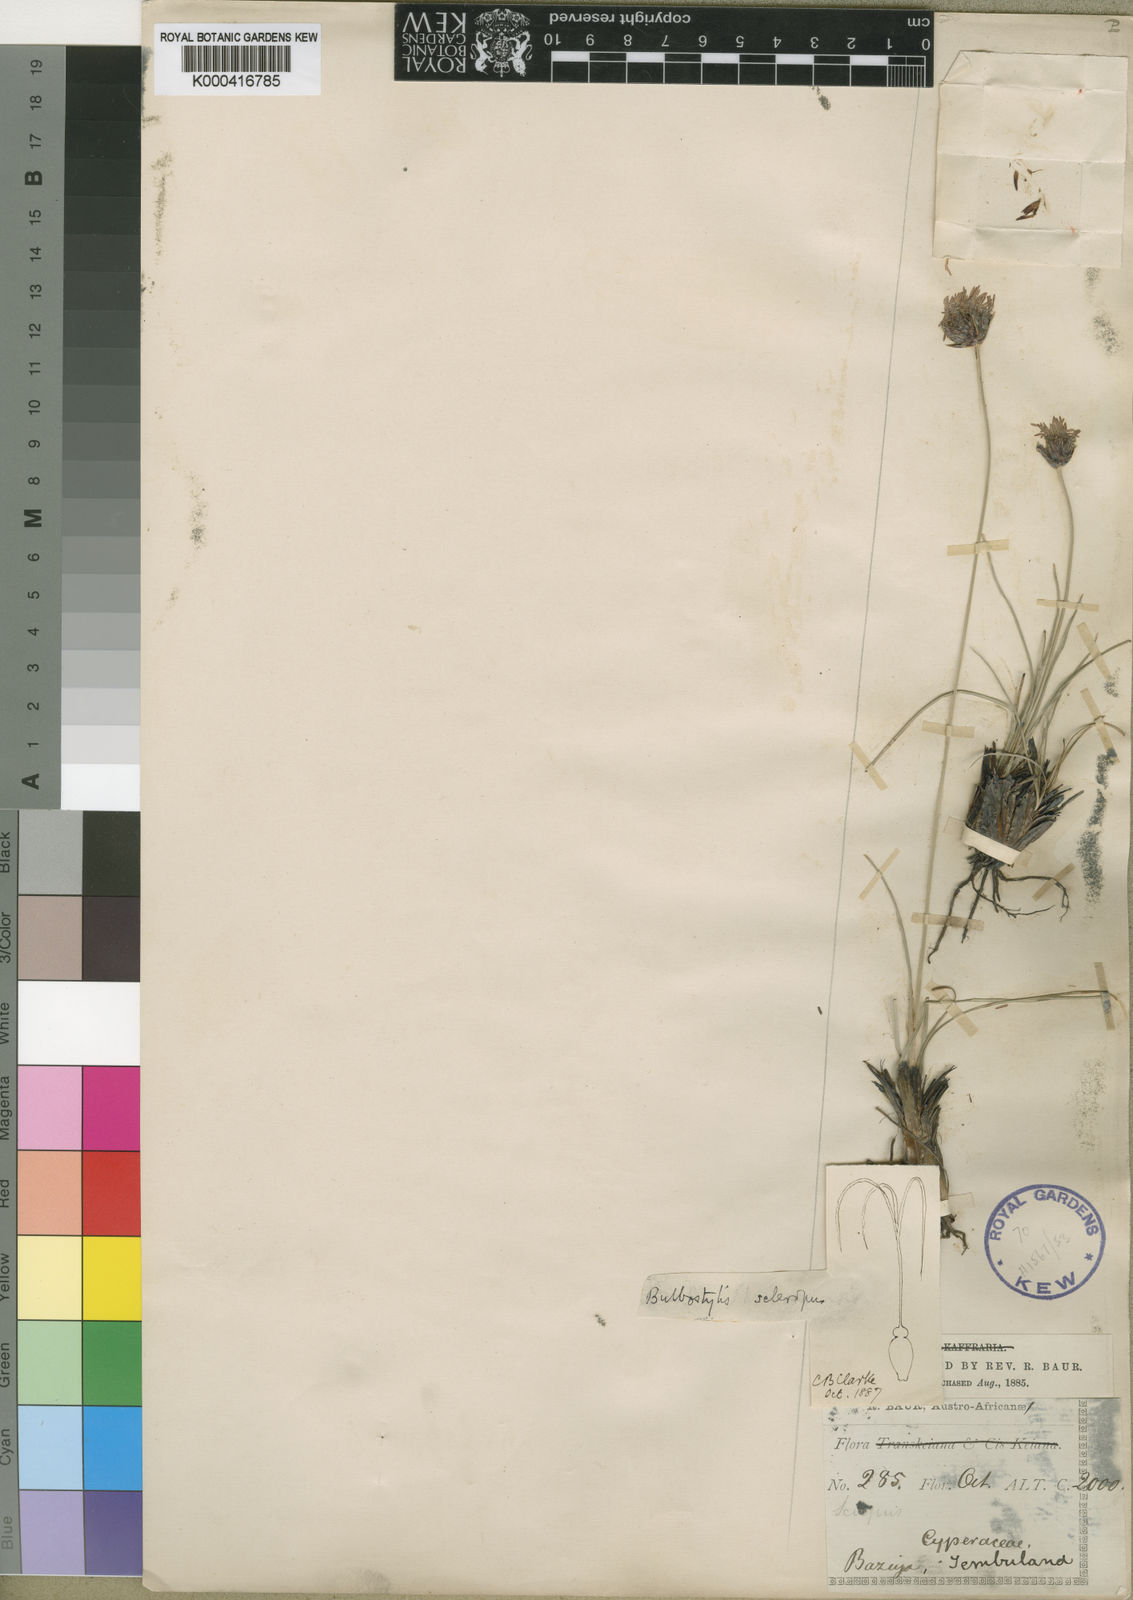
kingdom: Plantae
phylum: Tracheophyta
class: Liliopsida
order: Poales
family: Cyperaceae
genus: Bulbostylis
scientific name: Bulbostylis schoenoides
